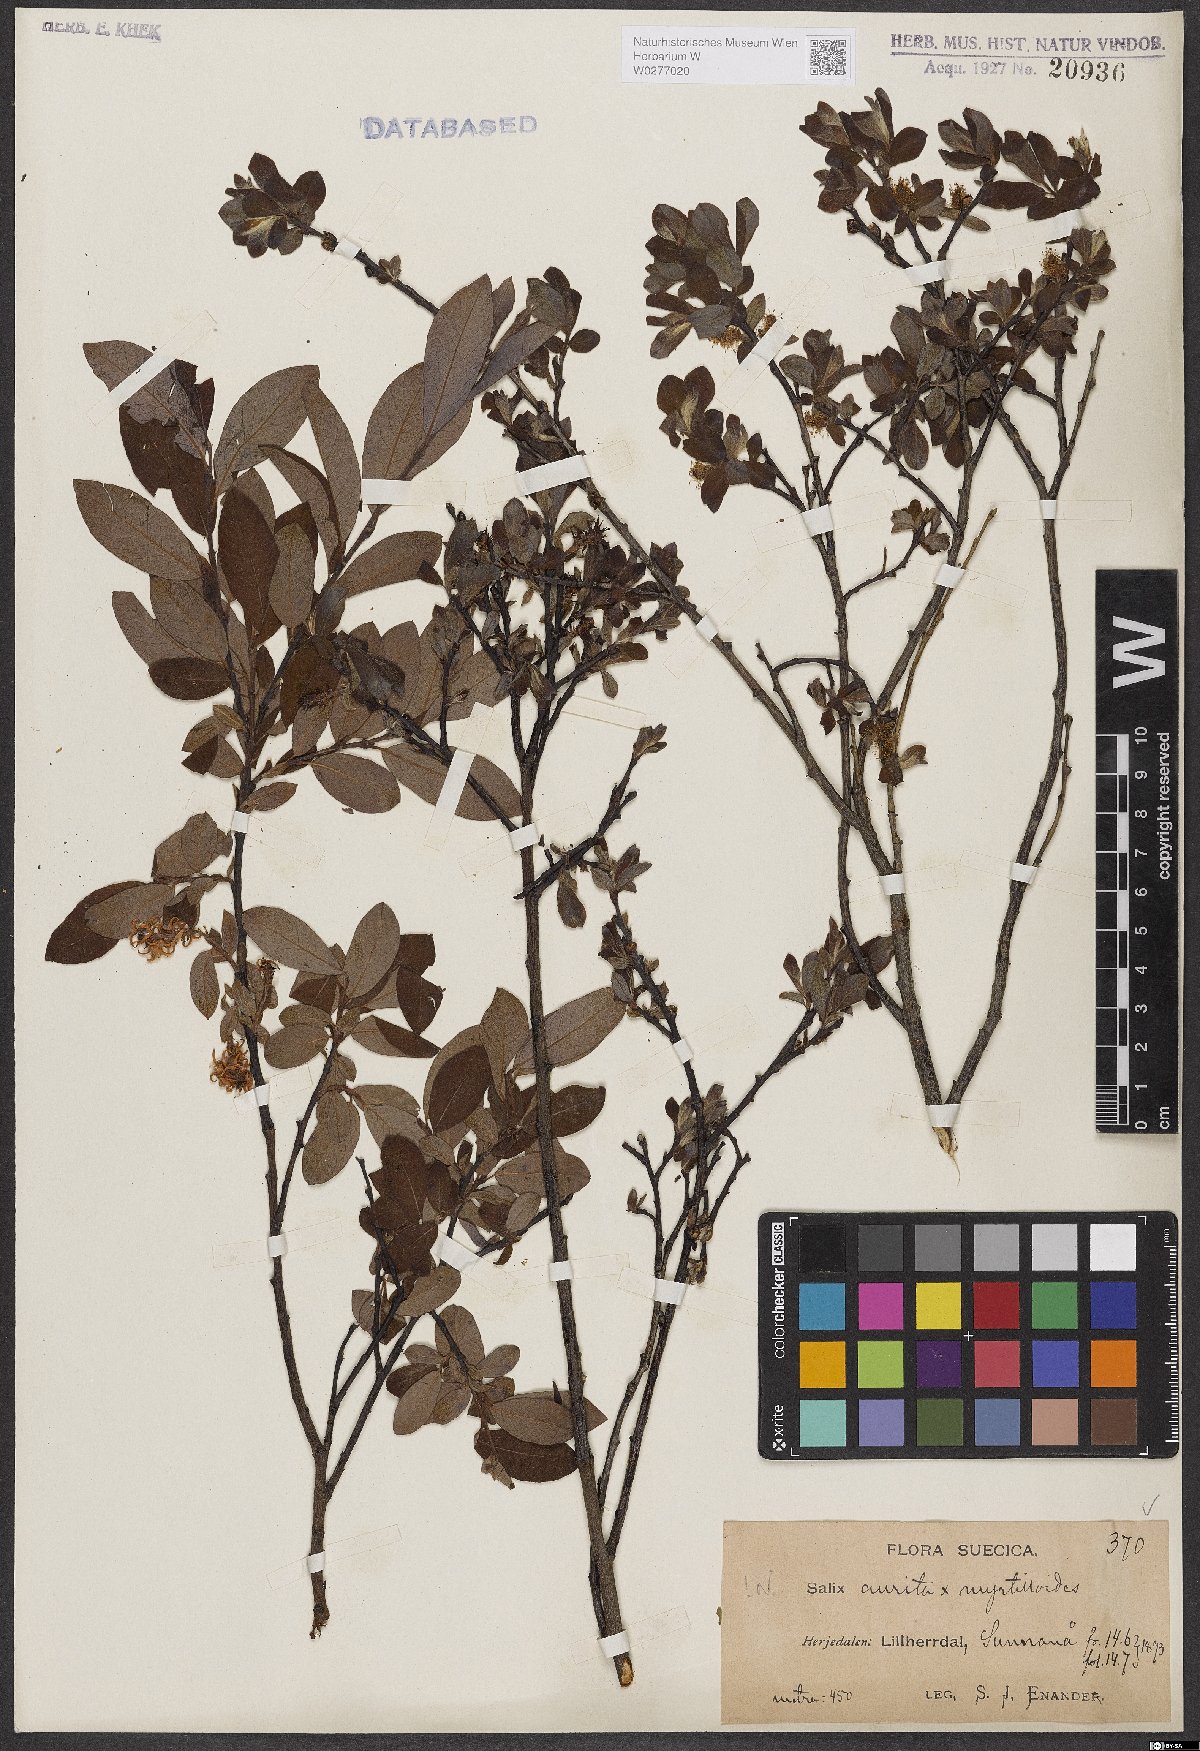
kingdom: Plantae
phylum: Tracheophyta
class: Magnoliopsida
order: Malpighiales
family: Salicaceae
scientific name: Salicaceae
